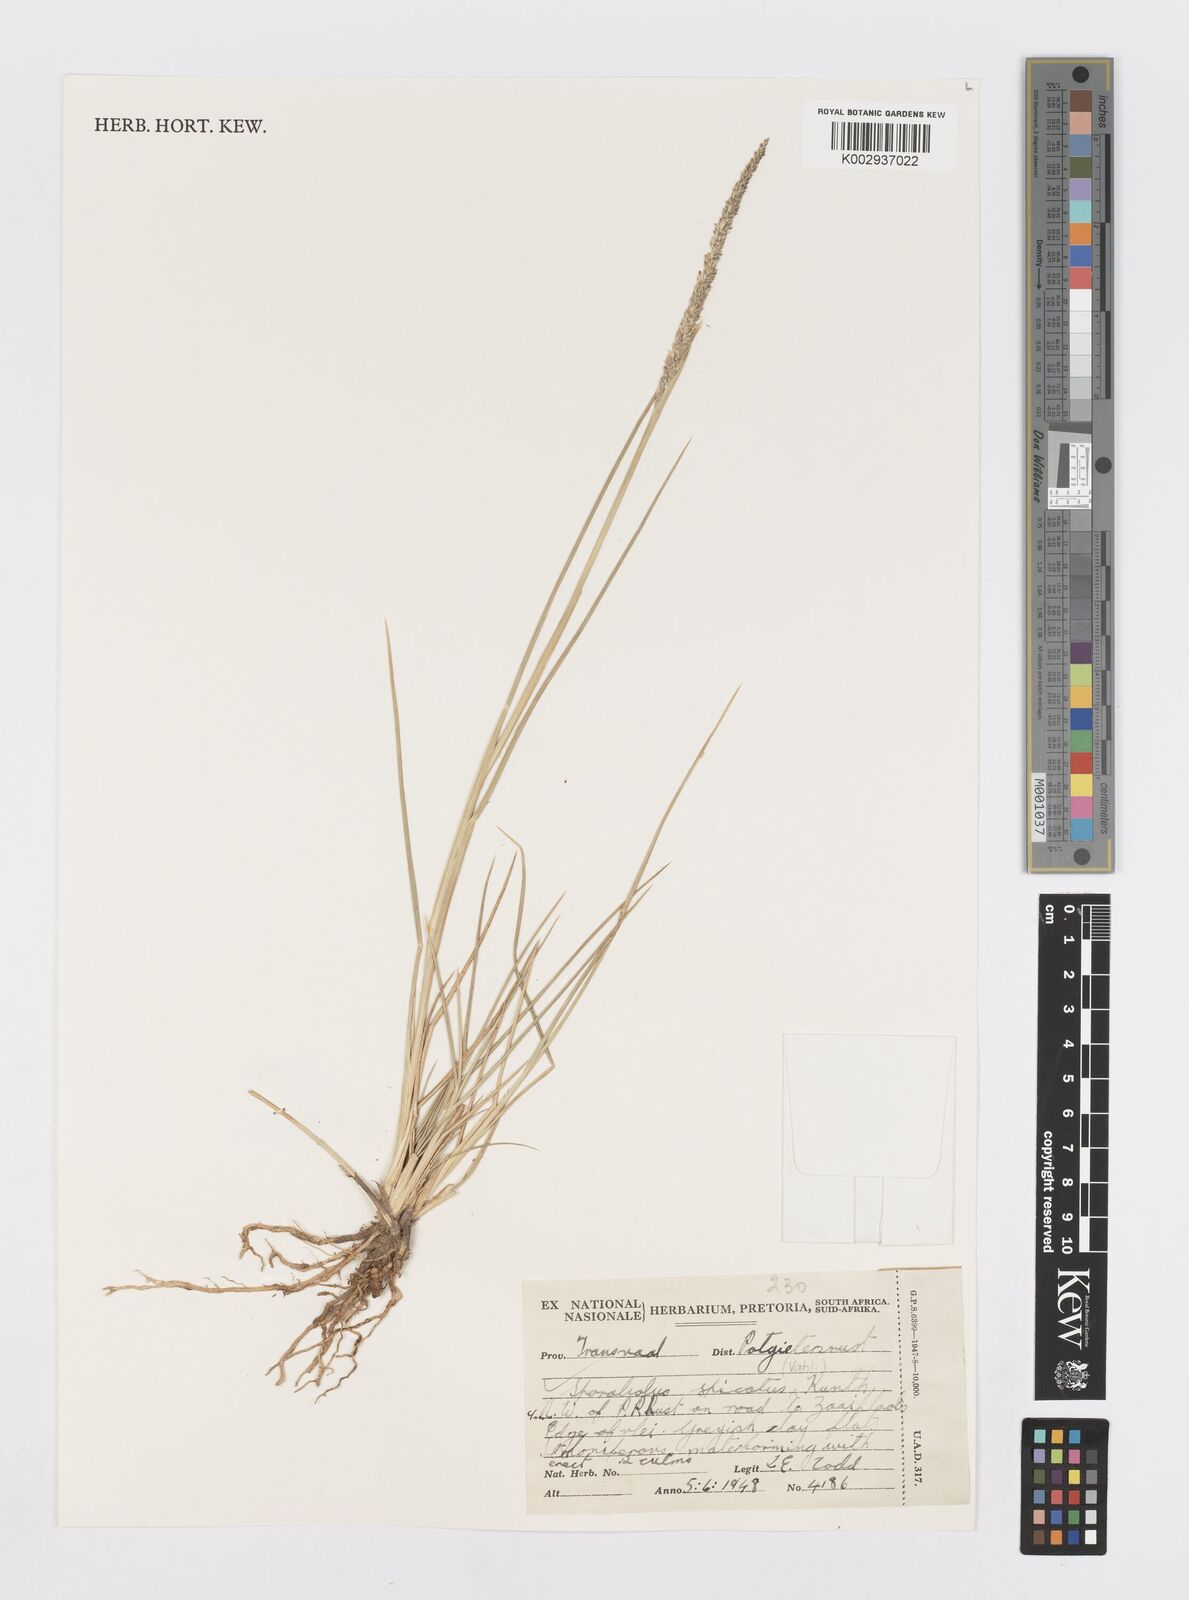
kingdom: Plantae
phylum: Tracheophyta
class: Liliopsida
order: Poales
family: Poaceae
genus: Sporobolus
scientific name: Sporobolus spicatus
